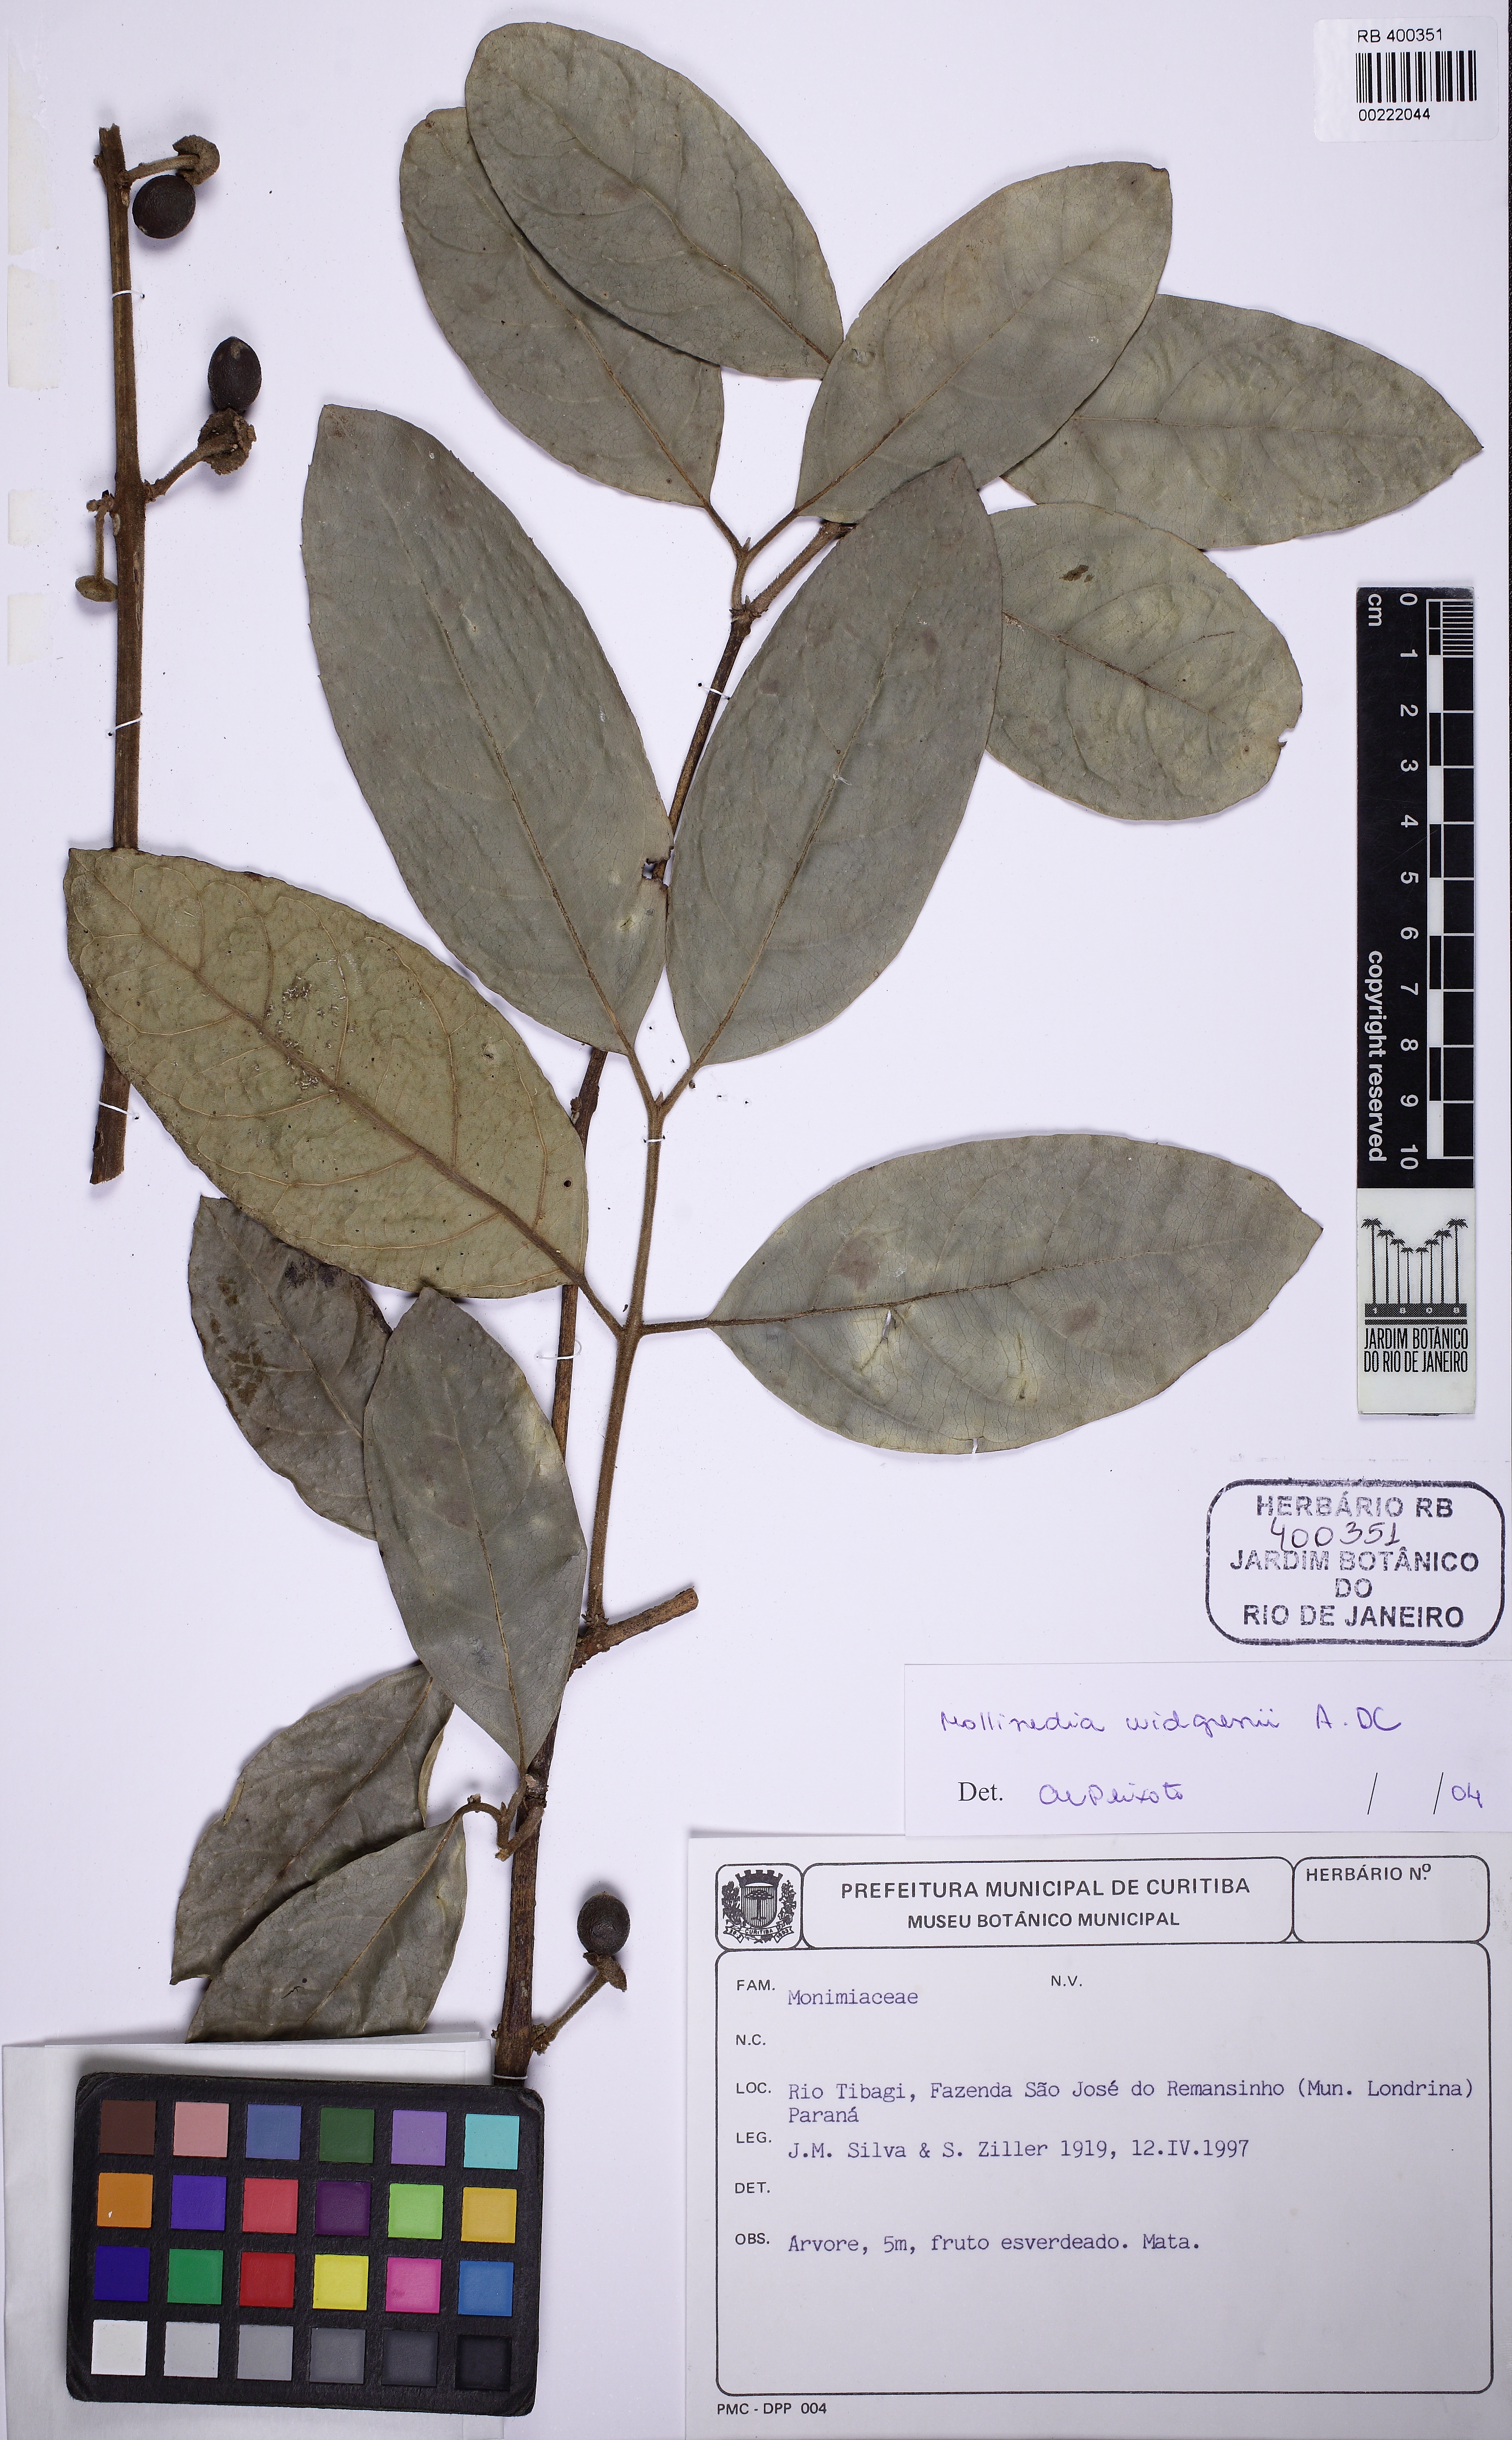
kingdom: Plantae
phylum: Tracheophyta
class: Magnoliopsida
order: Laurales
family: Monimiaceae
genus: Mollinedia
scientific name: Mollinedia widgrenii
